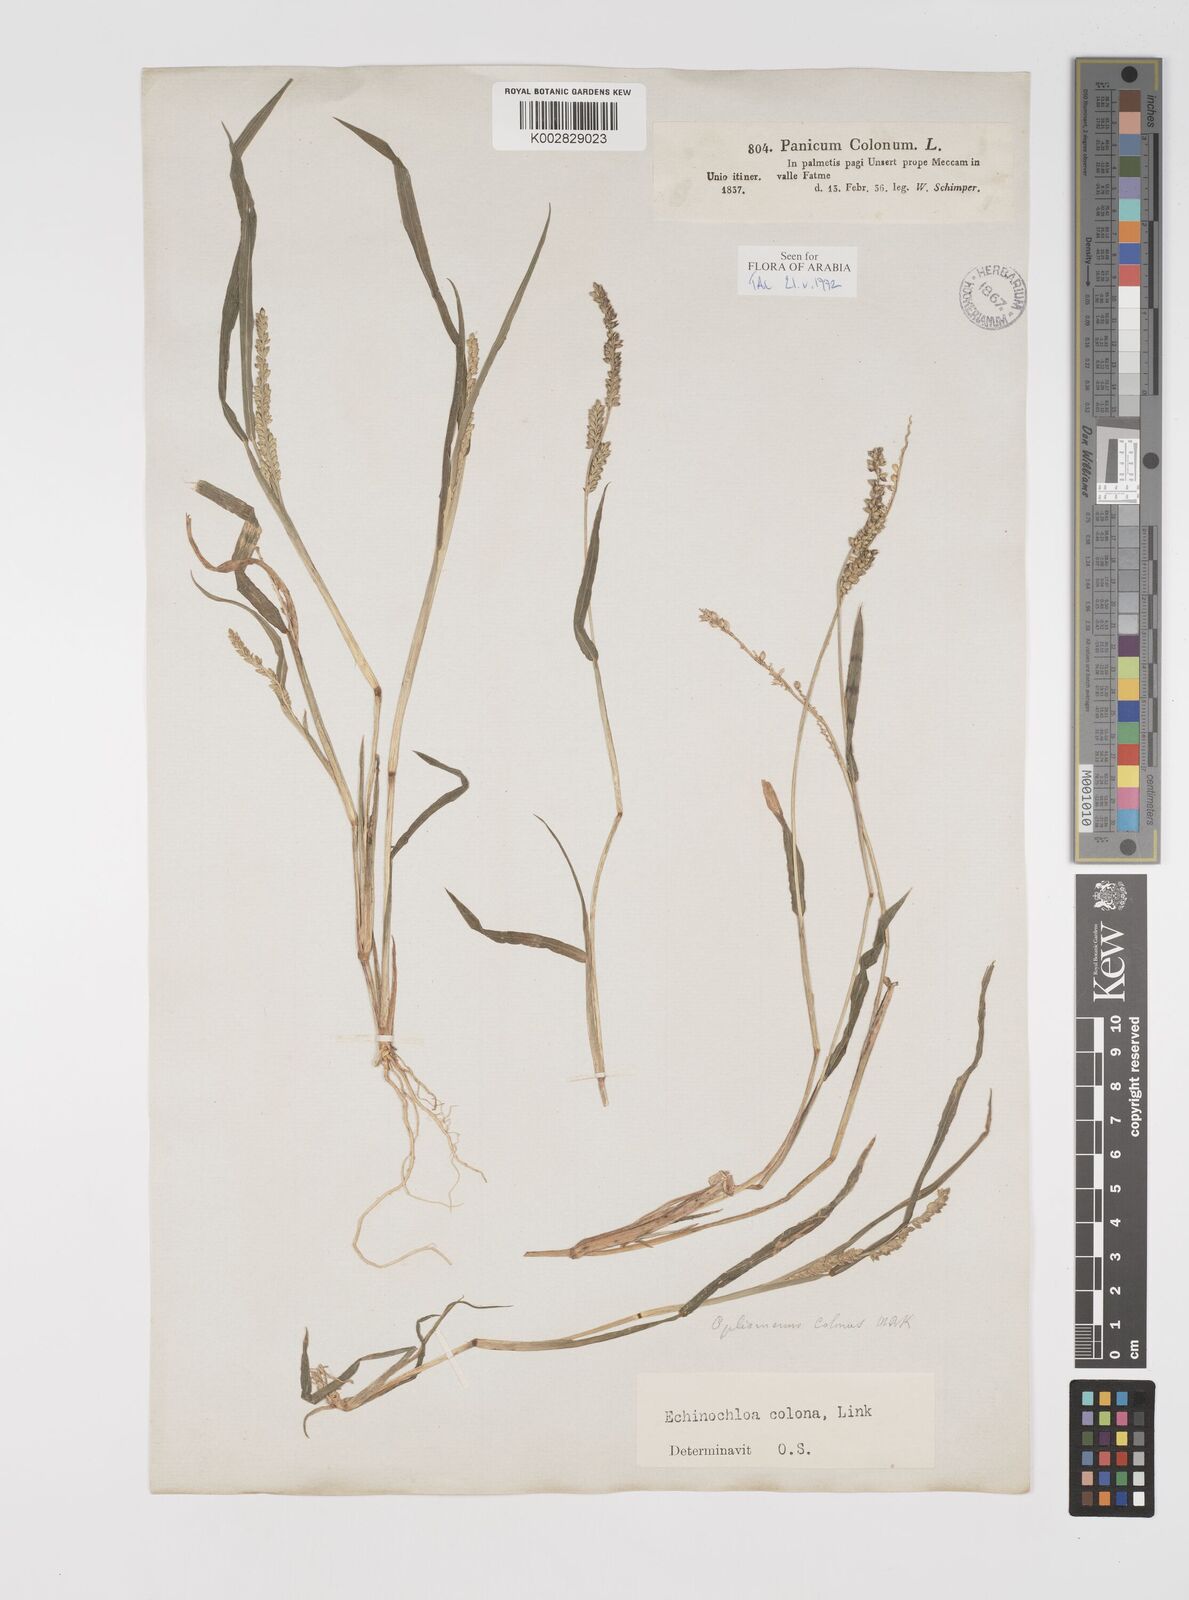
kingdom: Plantae
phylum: Tracheophyta
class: Liliopsida
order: Poales
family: Poaceae
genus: Echinochloa
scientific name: Echinochloa colonum
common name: Jungle rice
